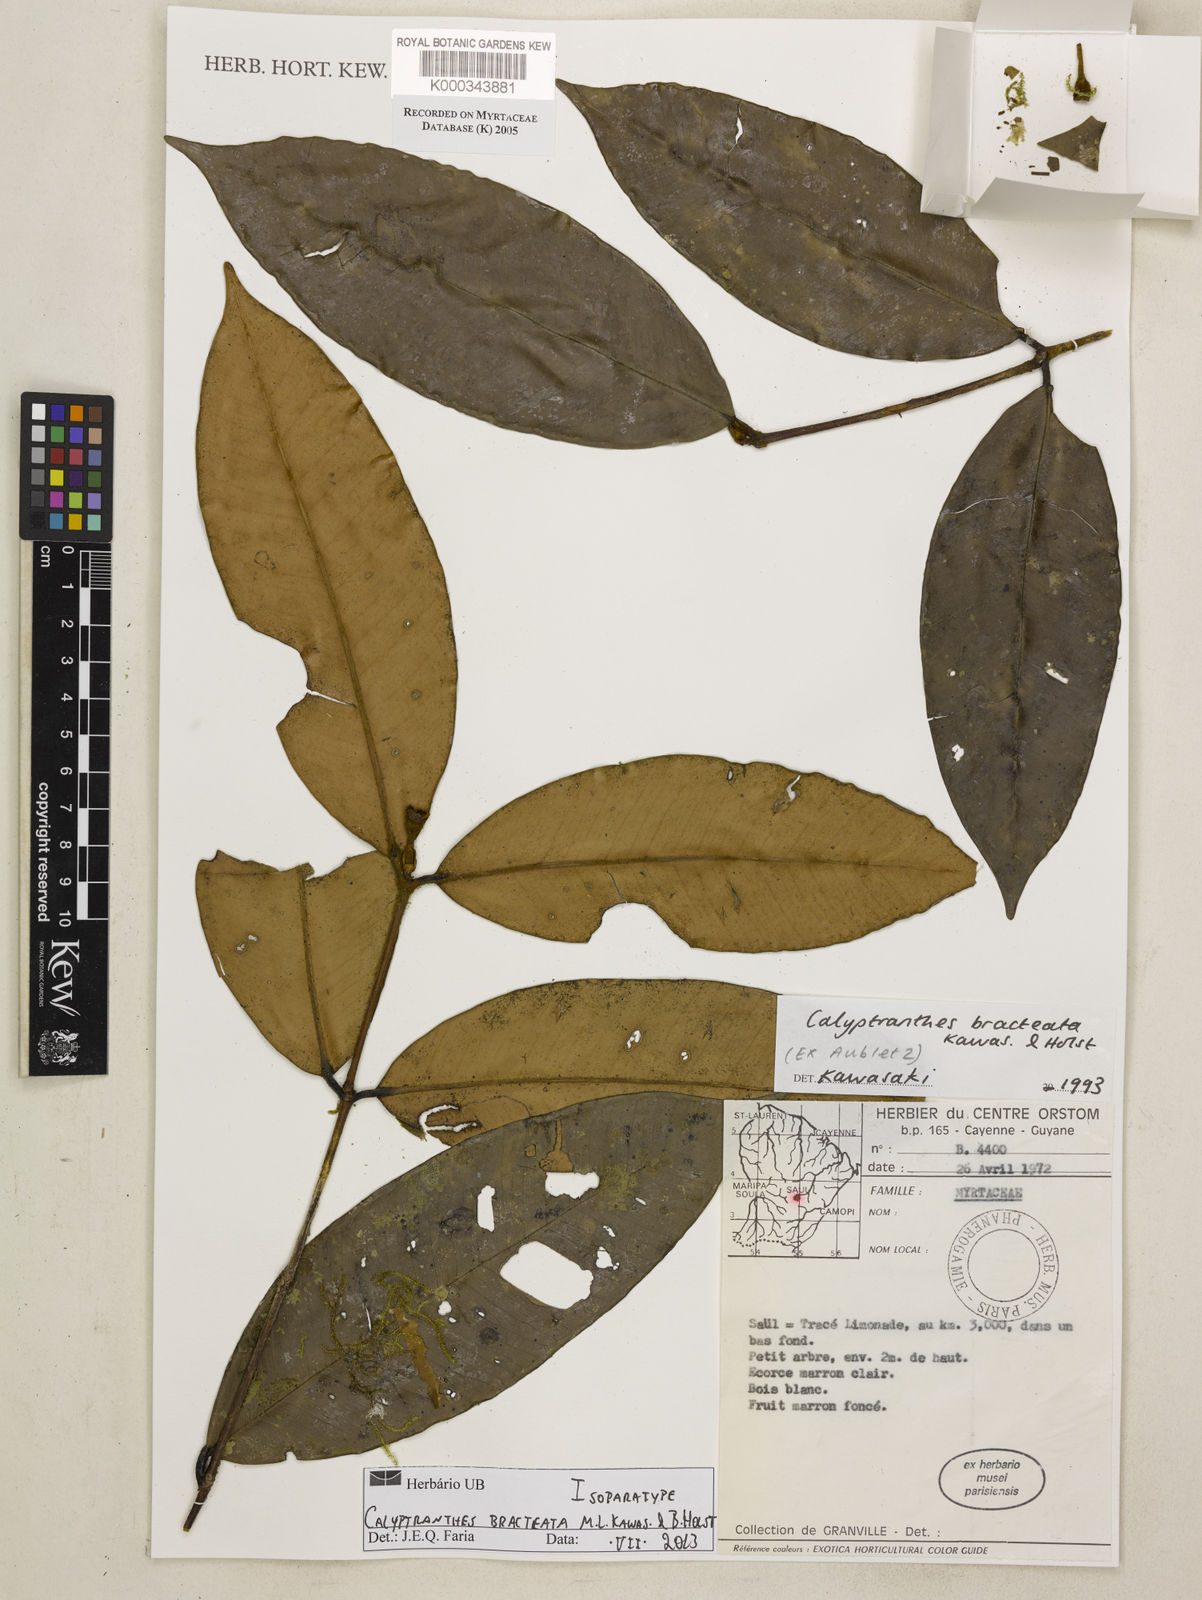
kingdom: Plantae
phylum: Tracheophyta
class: Magnoliopsida
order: Myrtales
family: Myrtaceae
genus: Myrcia
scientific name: Myrcia neobracteata
